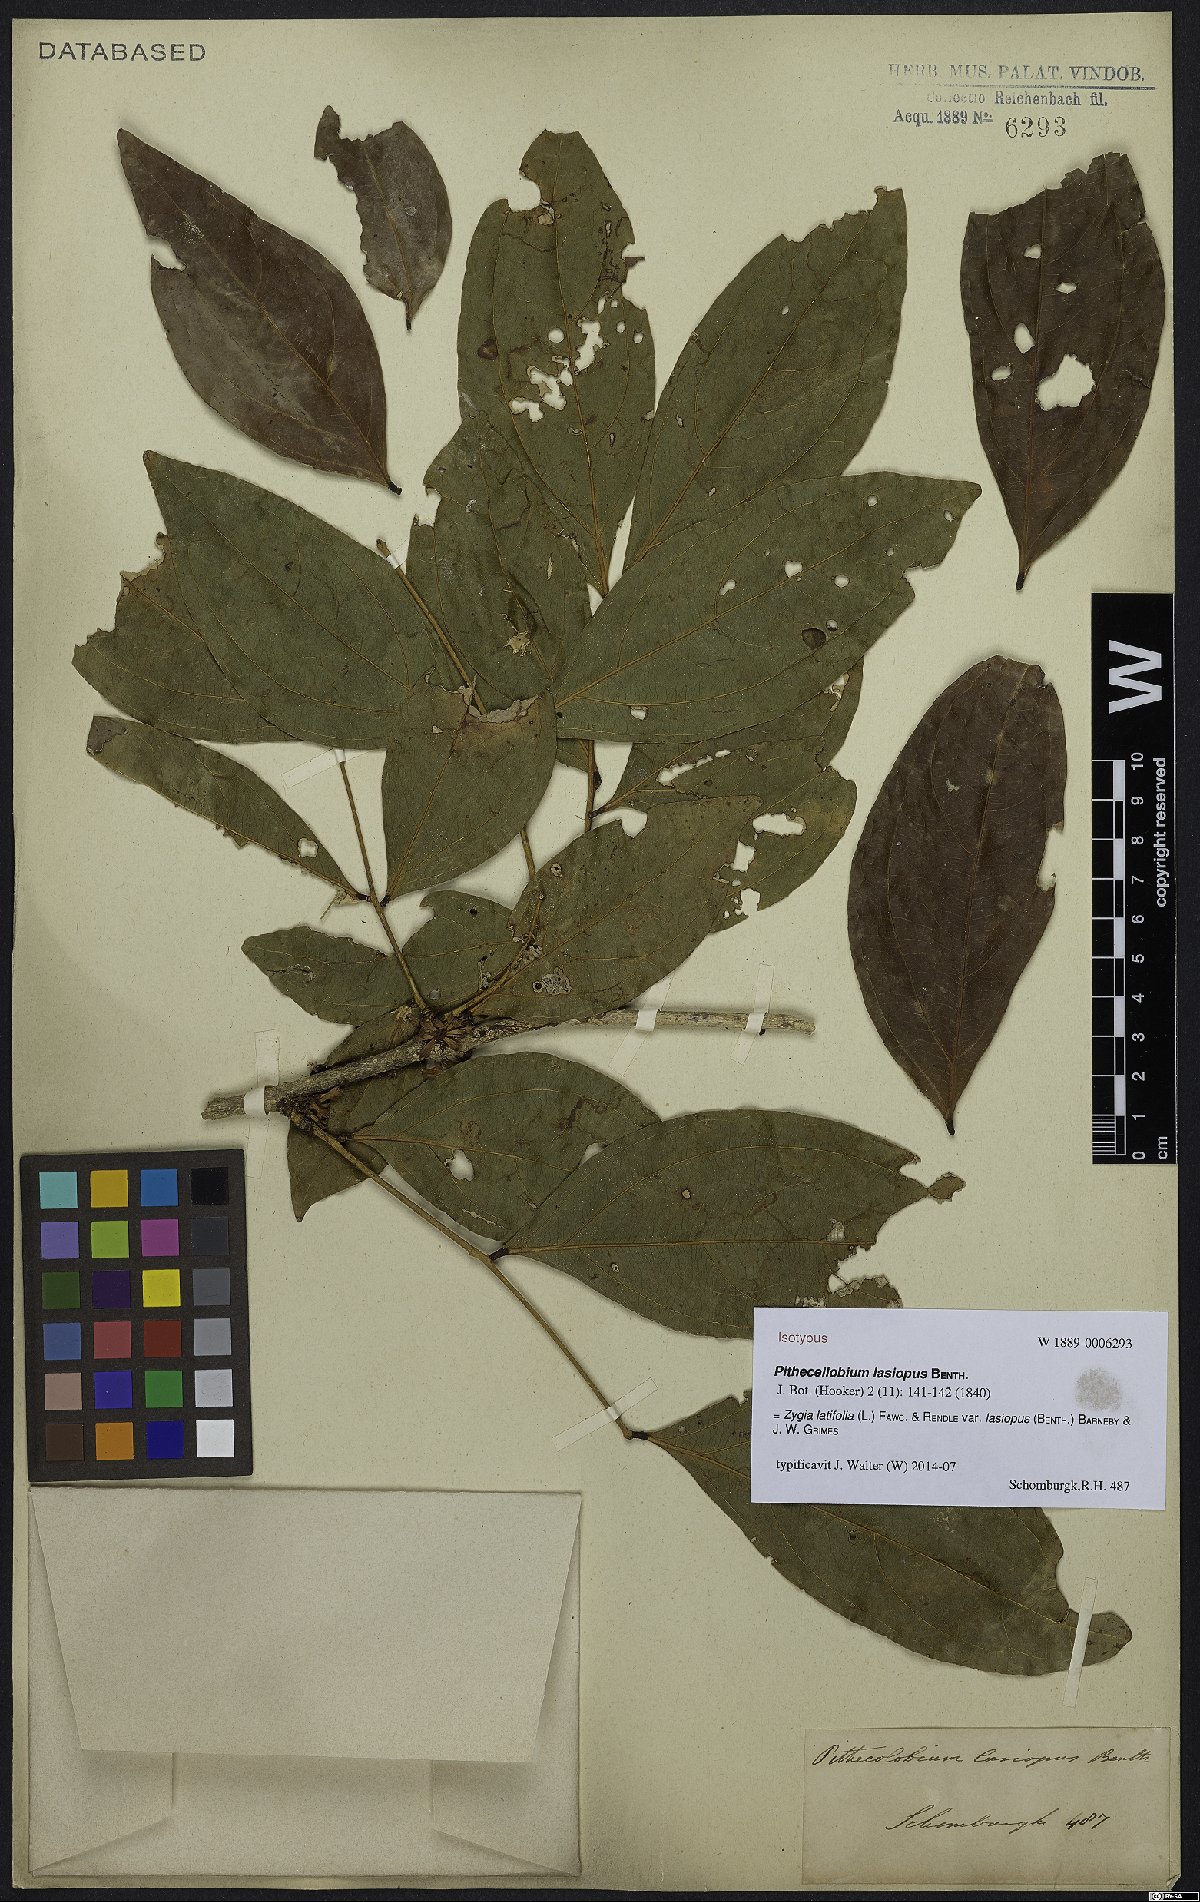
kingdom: Plantae
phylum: Tracheophyta
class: Magnoliopsida
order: Fabales
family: Fabaceae
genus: Zygia
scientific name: Zygia latifolia
